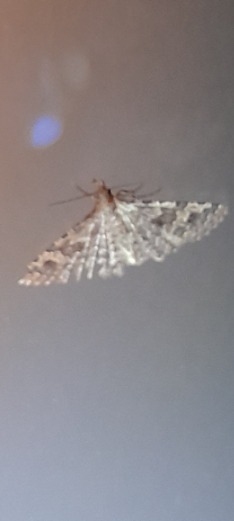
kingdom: Animalia
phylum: Arthropoda
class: Insecta
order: Lepidoptera
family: Alucitidae
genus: Alucita
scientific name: Alucita hexadactyla
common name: Kaprifoliefjermøl
